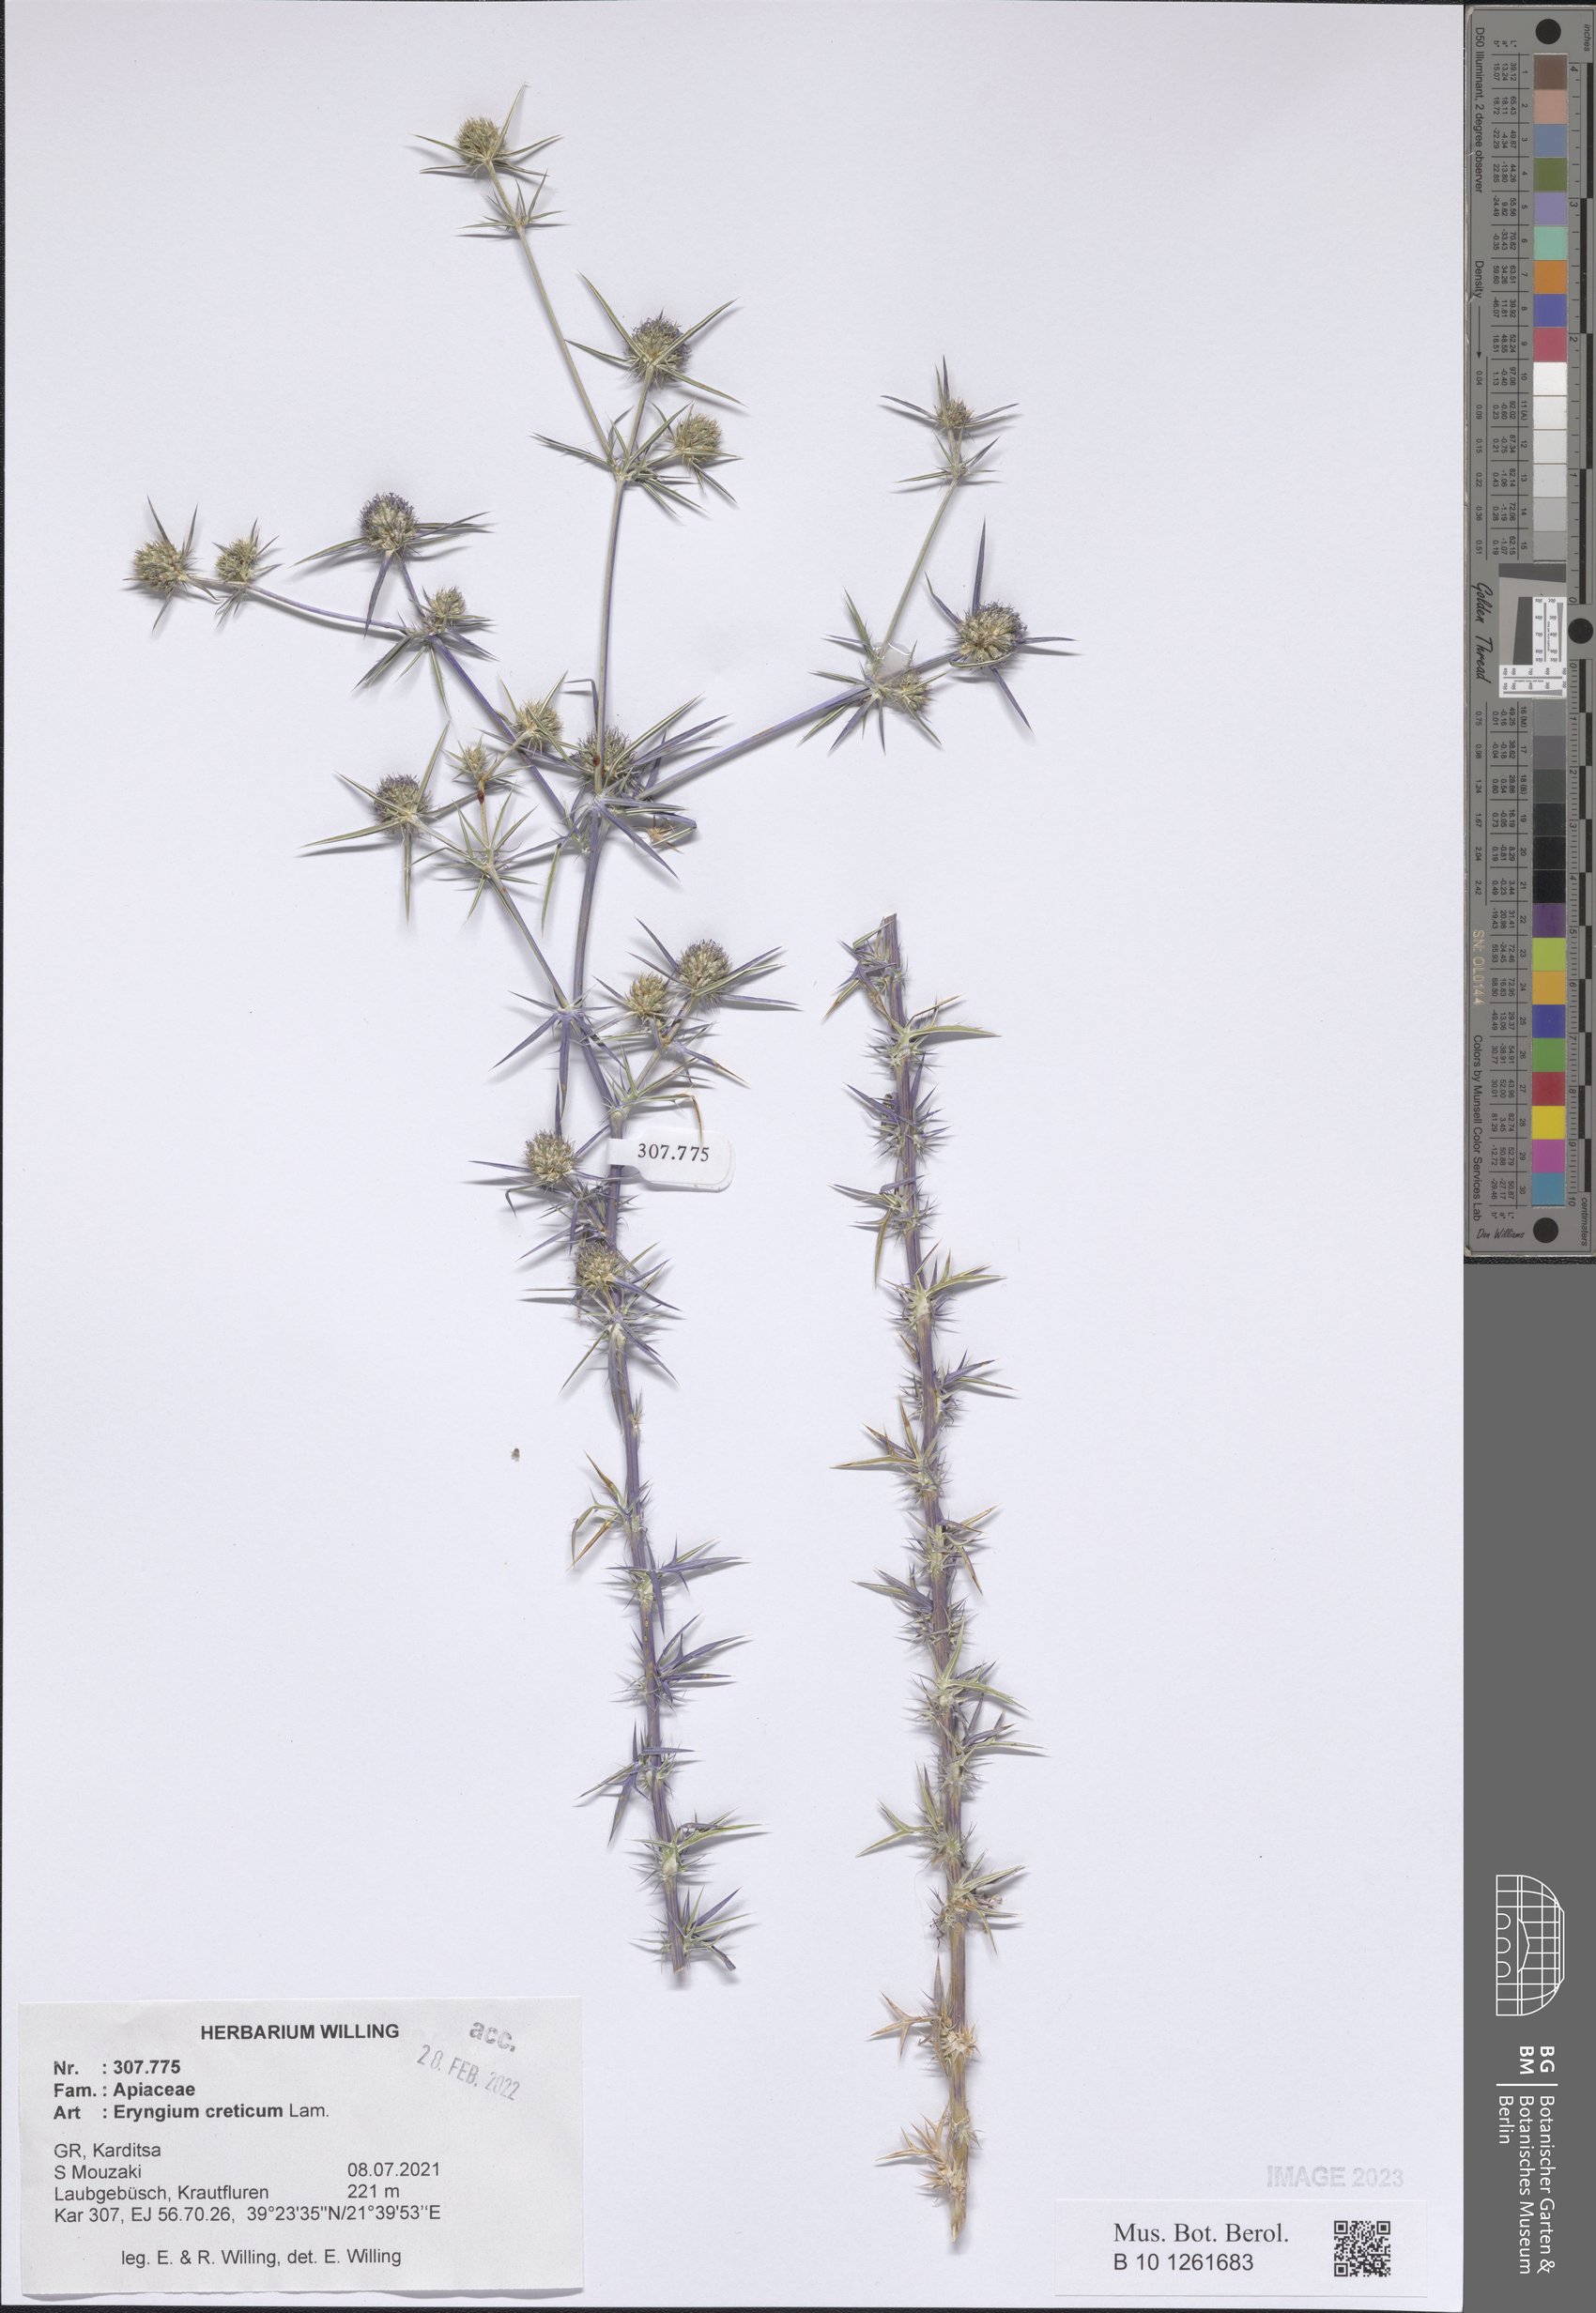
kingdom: Plantae
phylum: Tracheophyta
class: Magnoliopsida
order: Apiales
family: Apiaceae
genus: Eryngium
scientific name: Eryngium creticum
